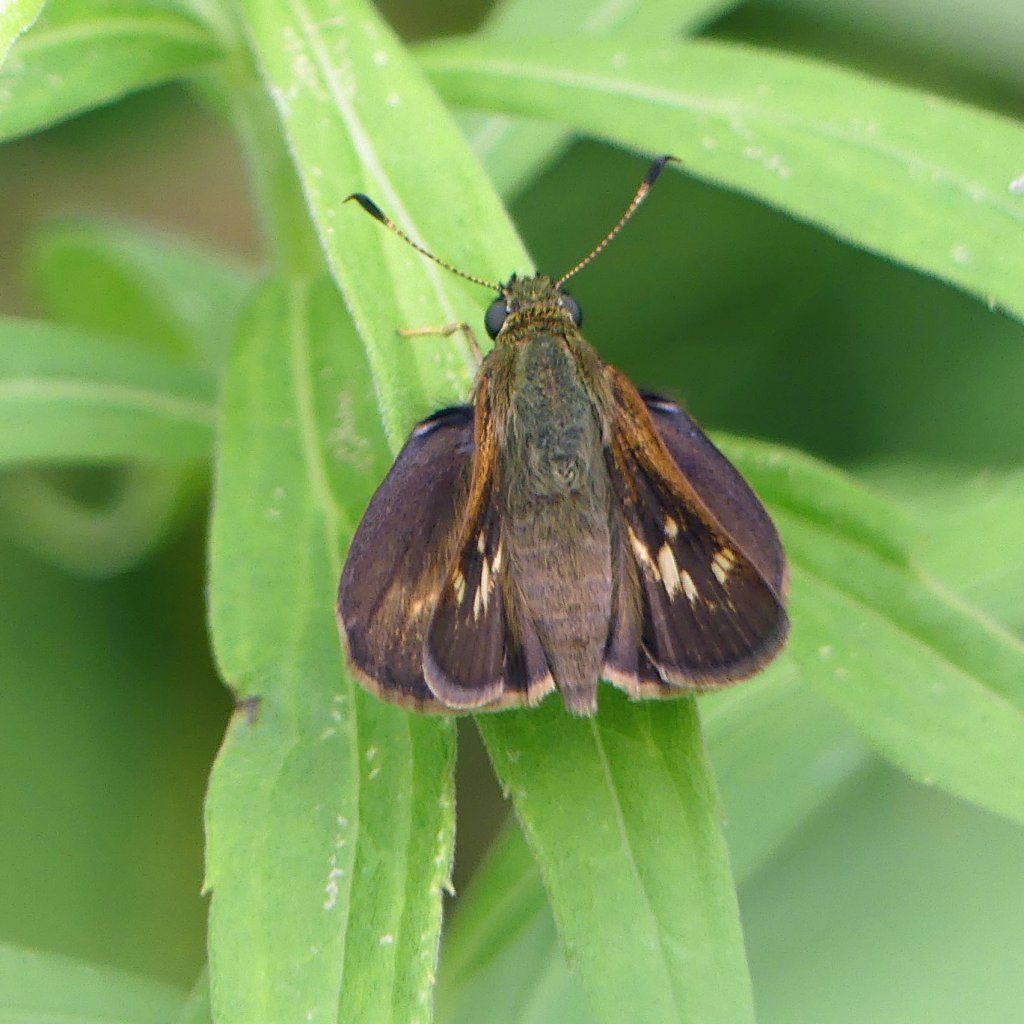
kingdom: Animalia
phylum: Arthropoda
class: Insecta
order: Lepidoptera
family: Hesperiidae
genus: Vernia
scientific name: Vernia verna
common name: Little Glassywing
